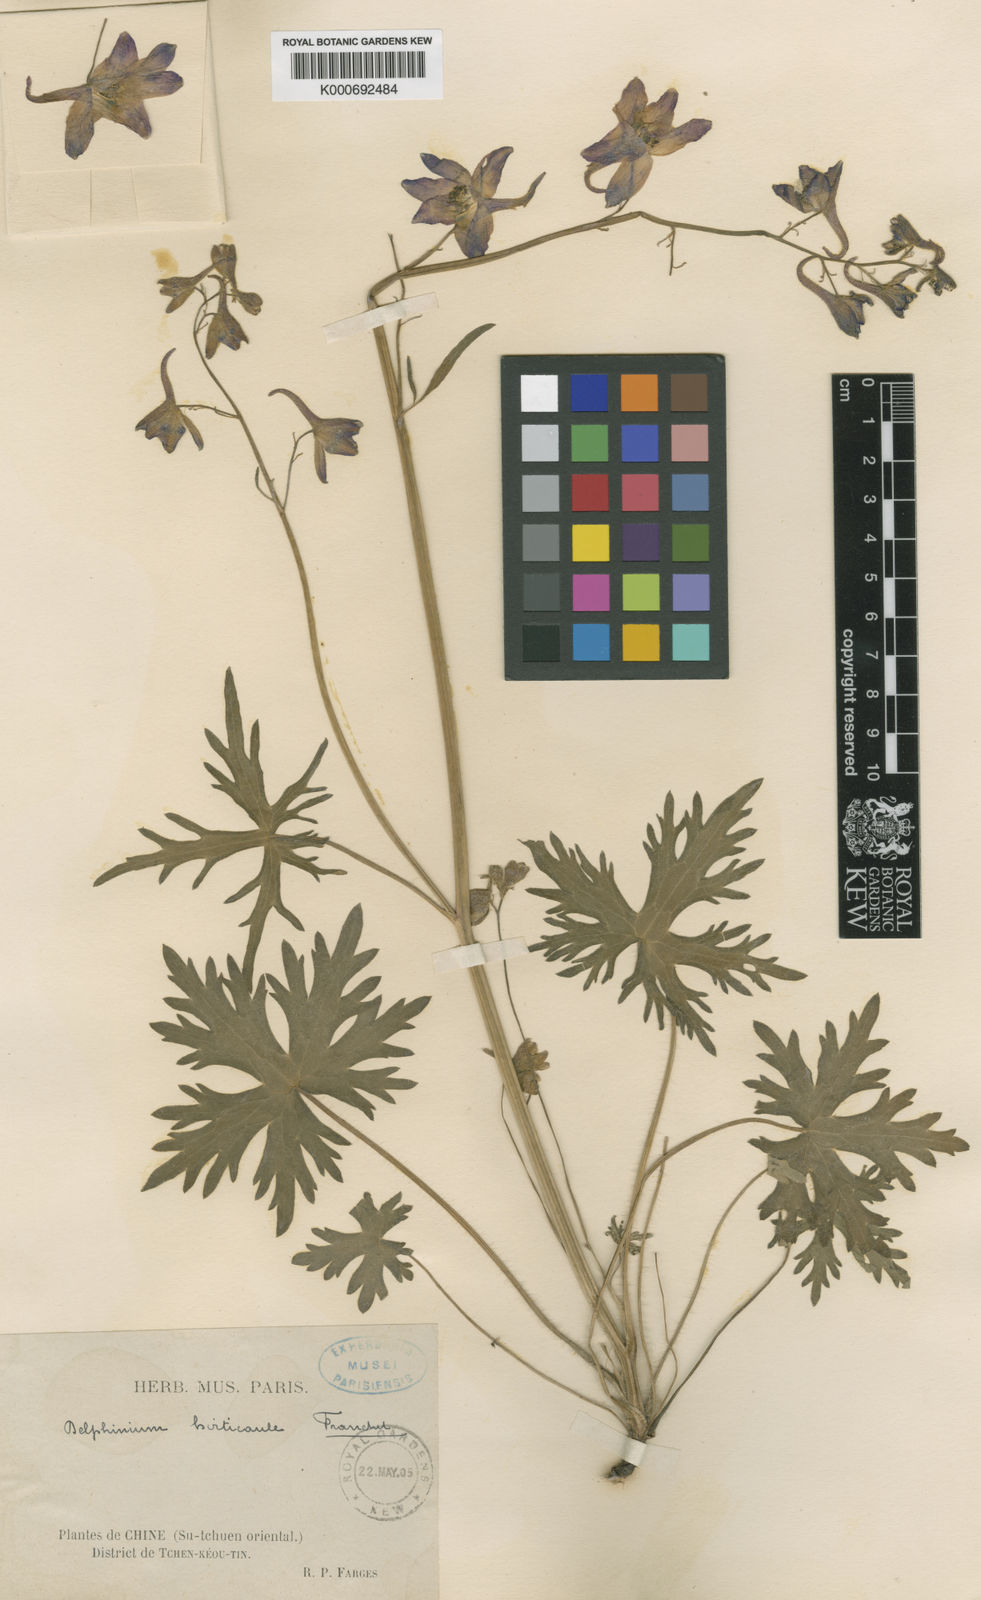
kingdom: Plantae
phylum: Tracheophyta
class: Magnoliopsida
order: Ranunculales
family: Ranunculaceae
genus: Delphinium
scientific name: Delphinium hirticaule
